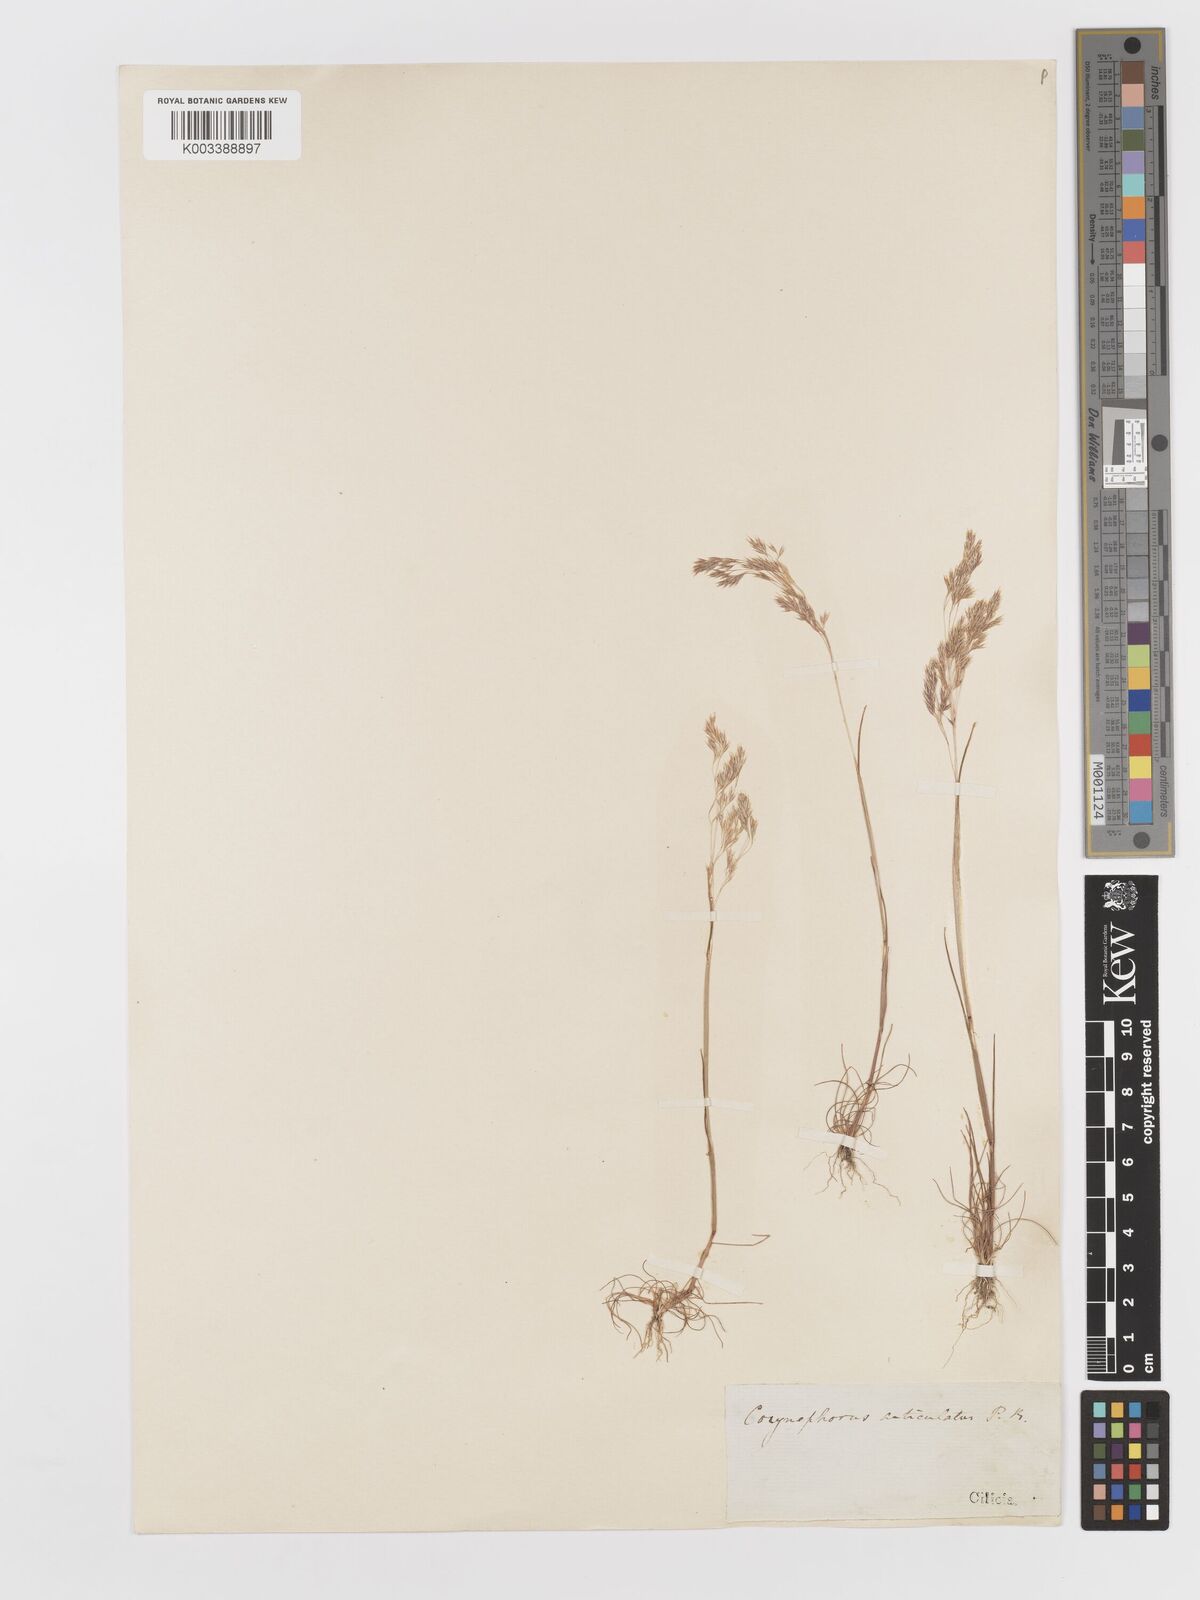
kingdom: Plantae
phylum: Tracheophyta
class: Liliopsida
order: Poales
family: Poaceae
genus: Corynephorus
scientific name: Corynephorus divaricatus
